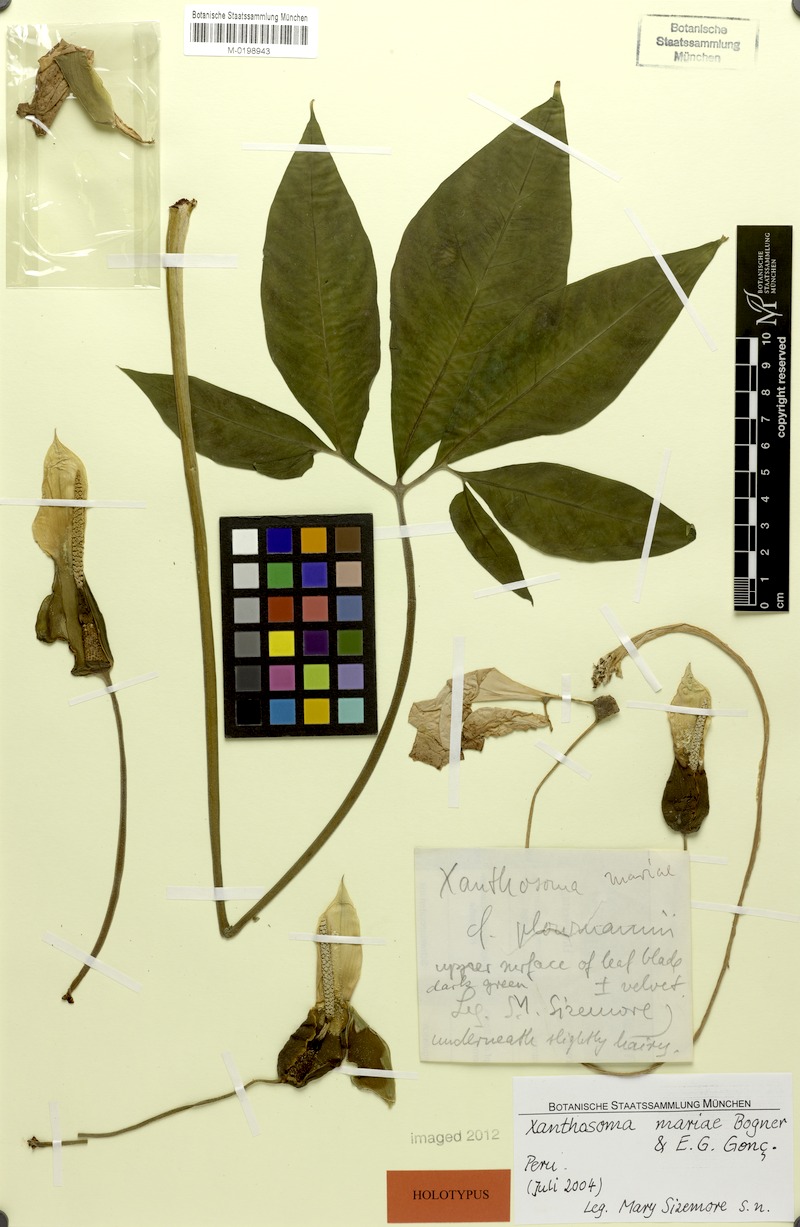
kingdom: Plantae
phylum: Tracheophyta
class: Liliopsida
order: Alismatales
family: Araceae
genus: Xanthosoma
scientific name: Xanthosoma mariae
